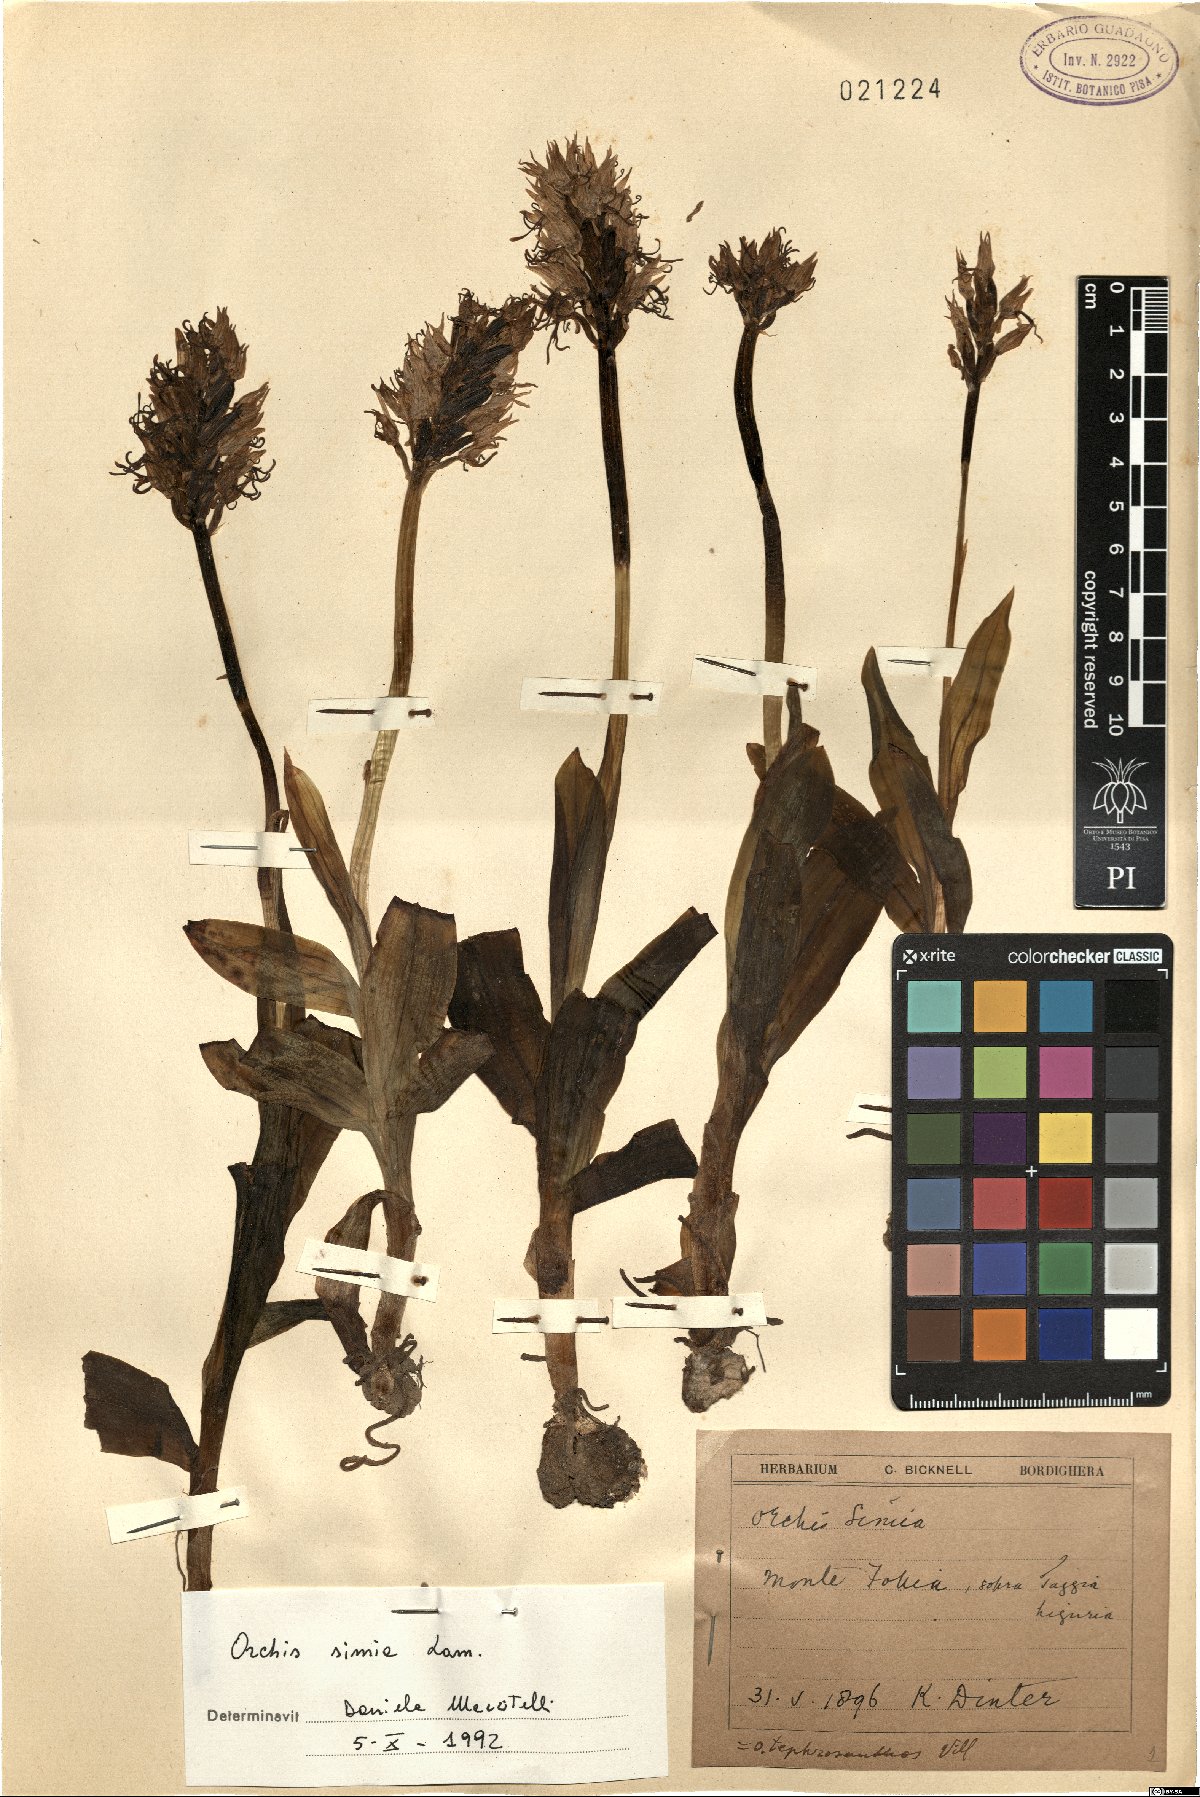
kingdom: Plantae
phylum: Tracheophyta
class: Liliopsida
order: Asparagales
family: Orchidaceae
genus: Orchis
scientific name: Orchis simia
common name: Monkey orchid
